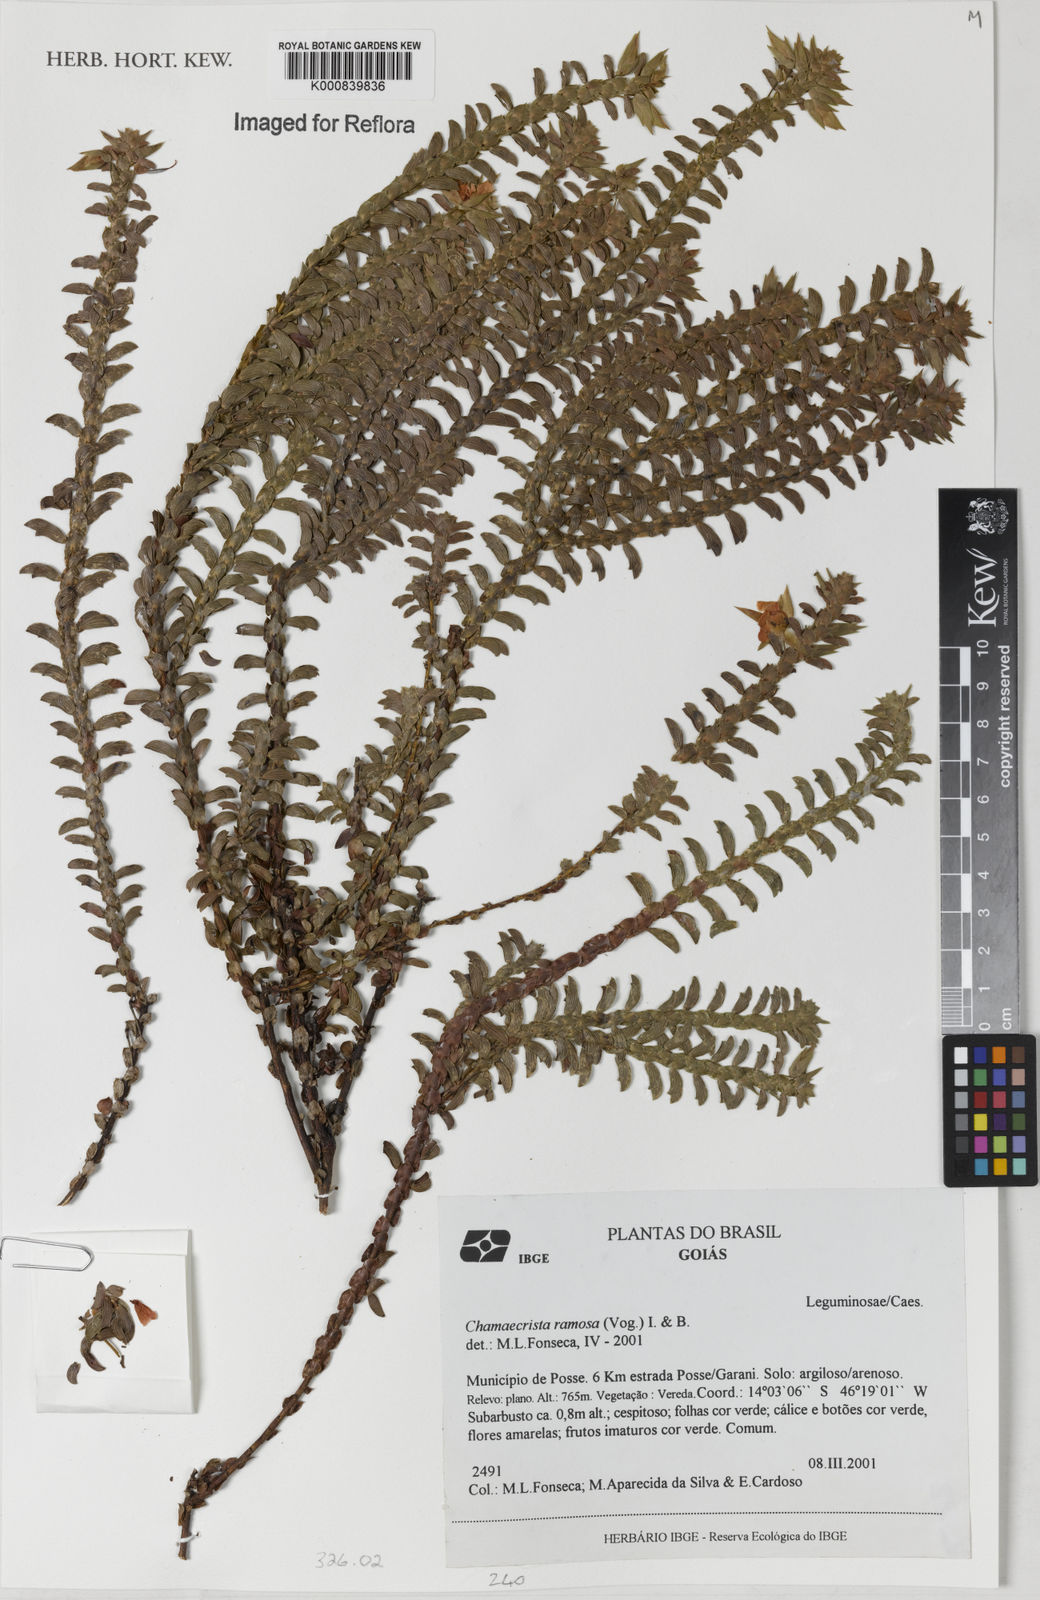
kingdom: Plantae
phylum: Tracheophyta
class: Magnoliopsida
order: Fabales
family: Fabaceae
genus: Chamaecrista
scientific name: Chamaecrista ramosa
